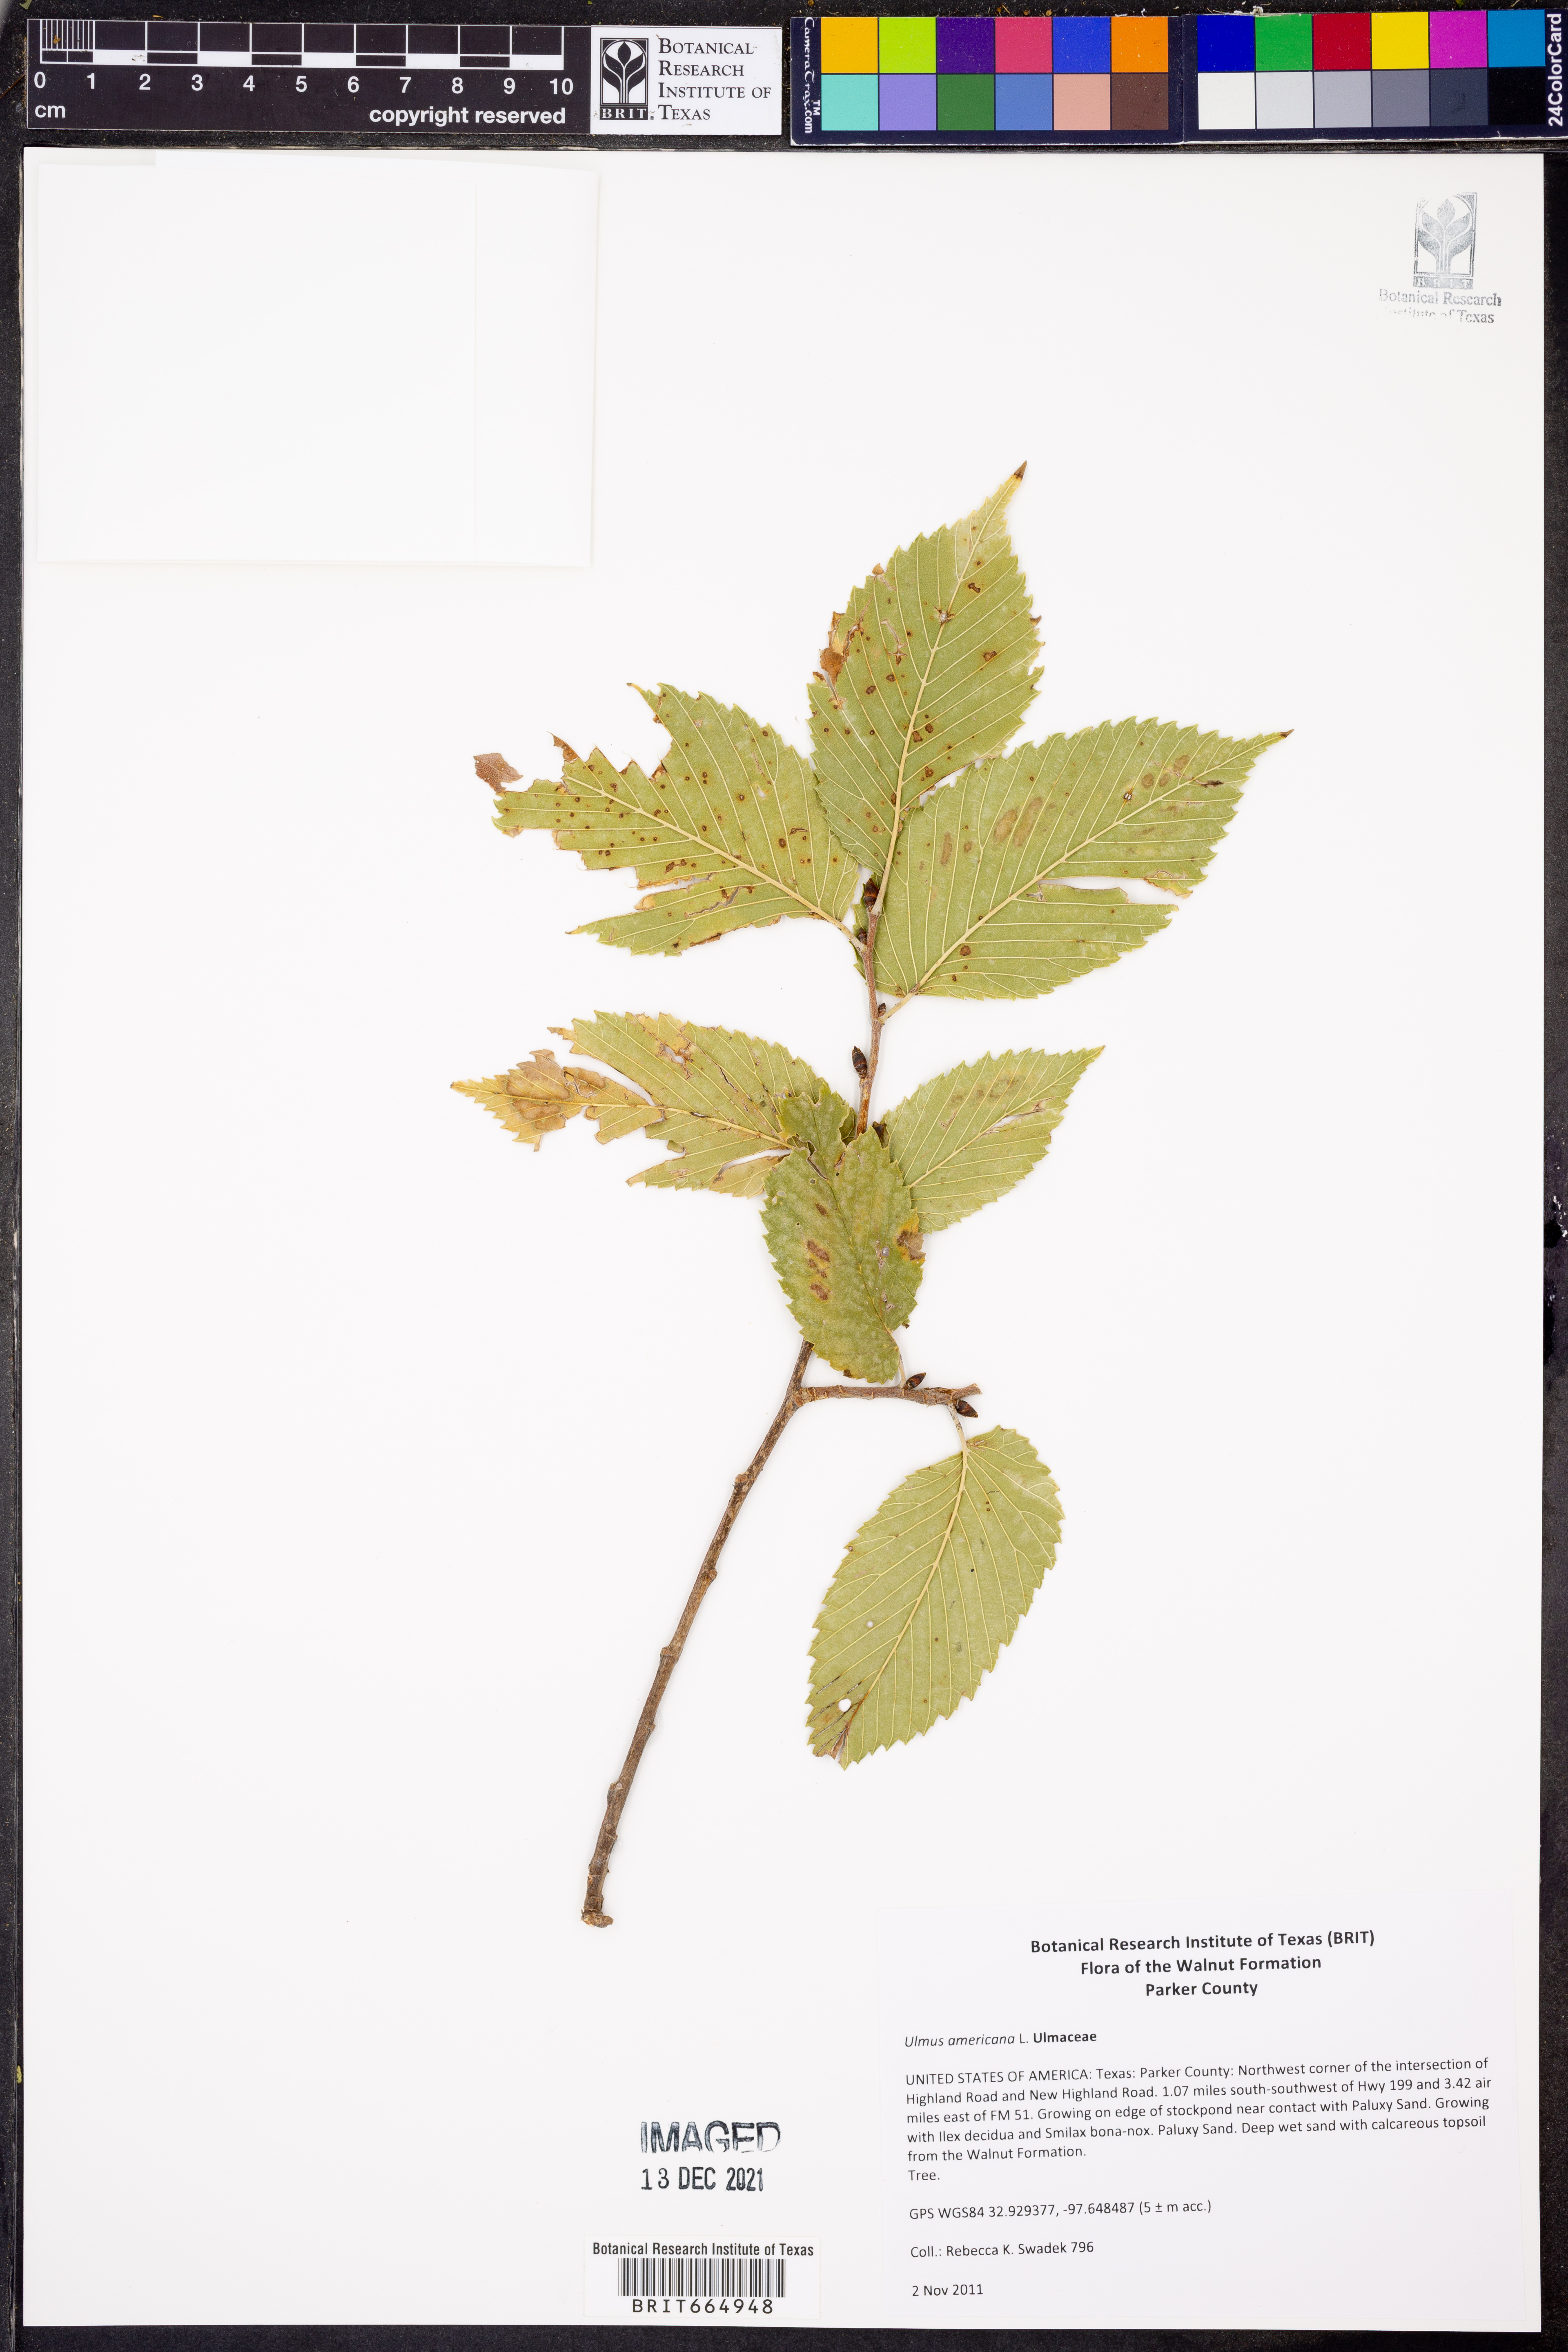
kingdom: Plantae
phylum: Tracheophyta
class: Magnoliopsida
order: Rosales
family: Ulmaceae
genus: Ulmus
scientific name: Ulmus americana
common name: American elm
